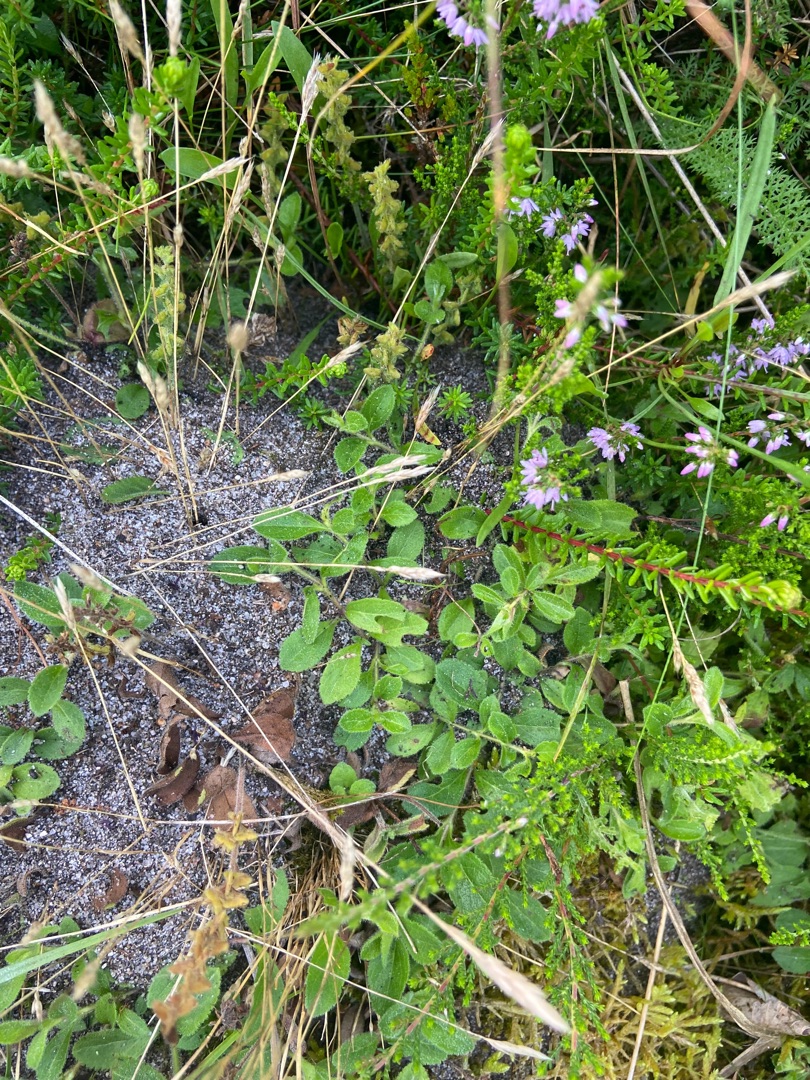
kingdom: Plantae
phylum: Tracheophyta
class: Magnoliopsida
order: Lamiales
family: Plantaginaceae
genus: Veronica
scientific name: Veronica officinalis
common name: Læge-ærenpris
